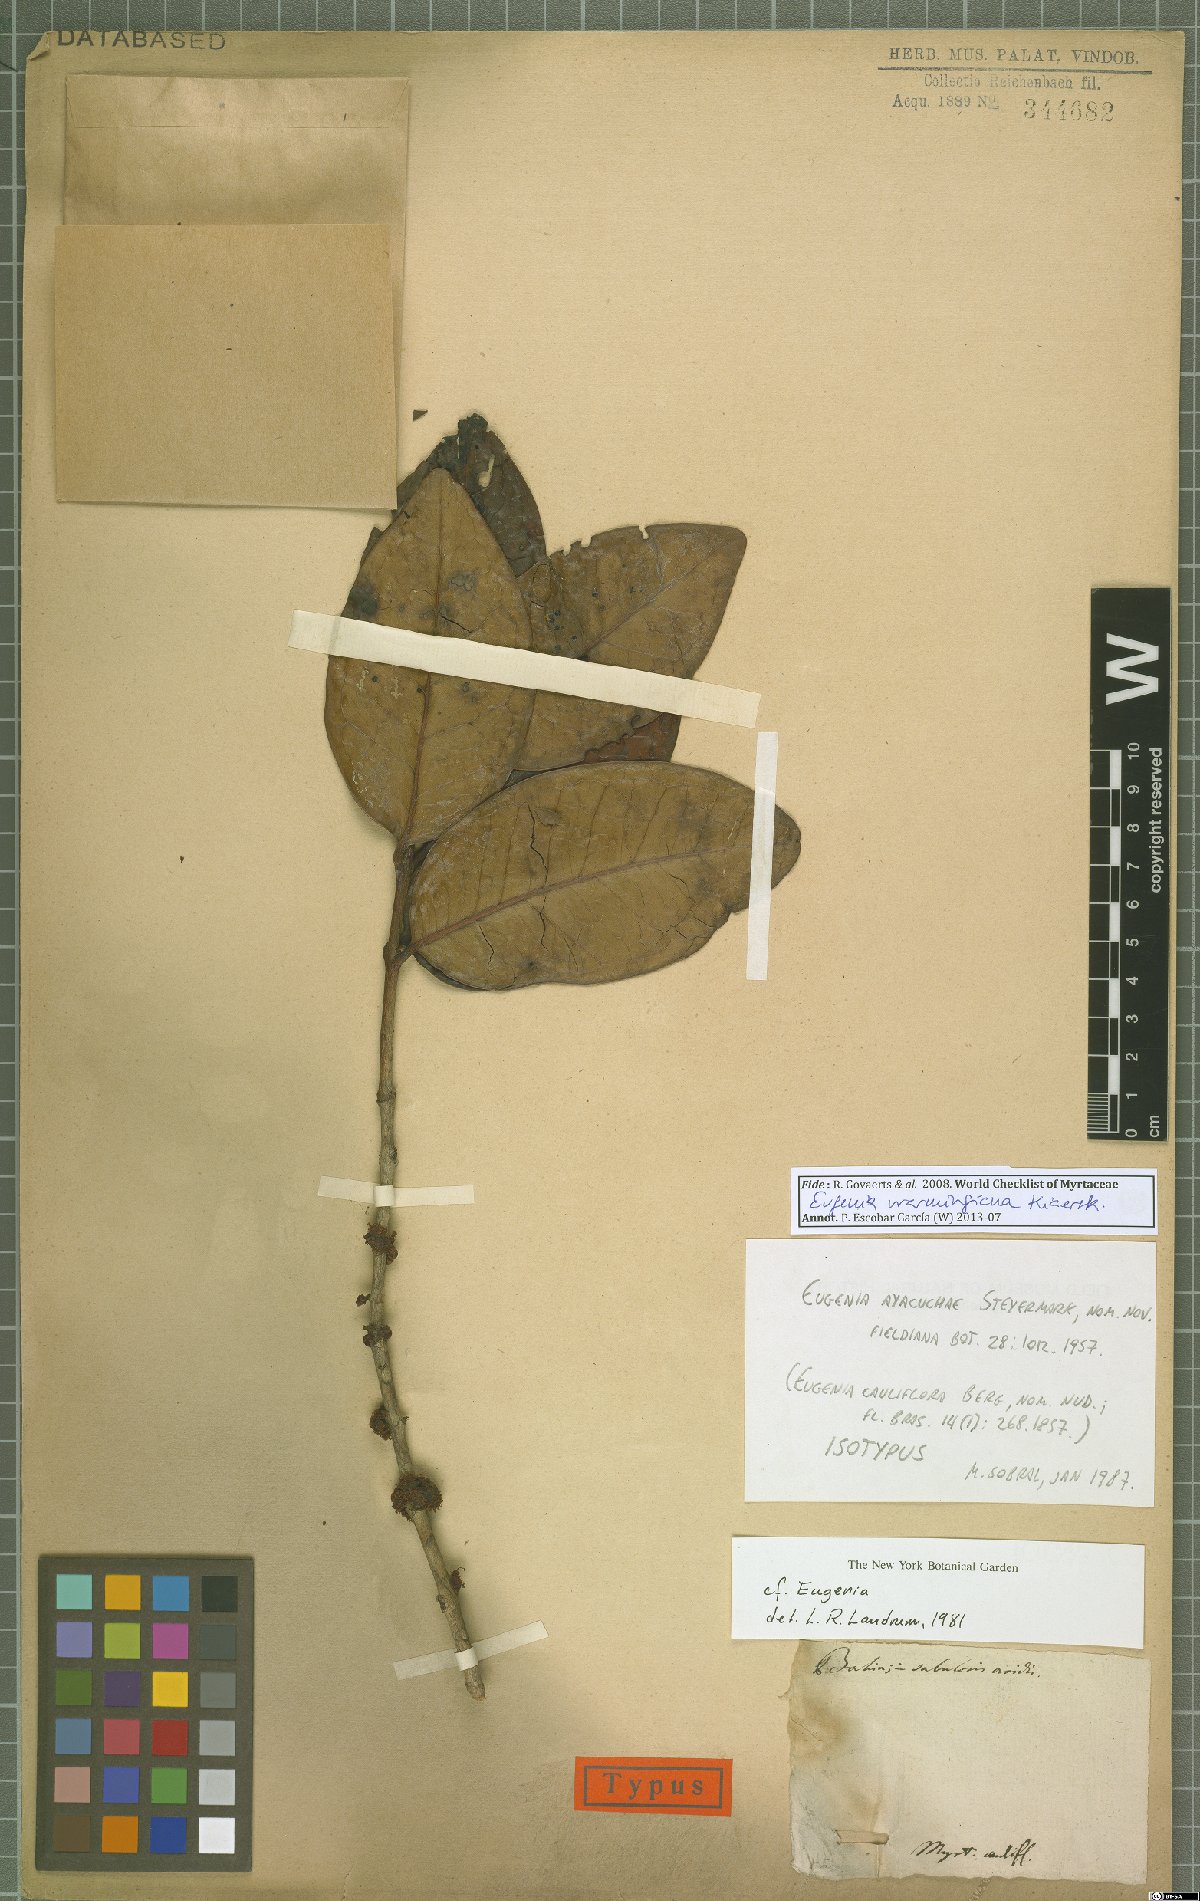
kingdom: Plantae
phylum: Tracheophyta
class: Magnoliopsida
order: Myrtales
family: Myrtaceae
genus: Eugenia
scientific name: Eugenia warmingiana
